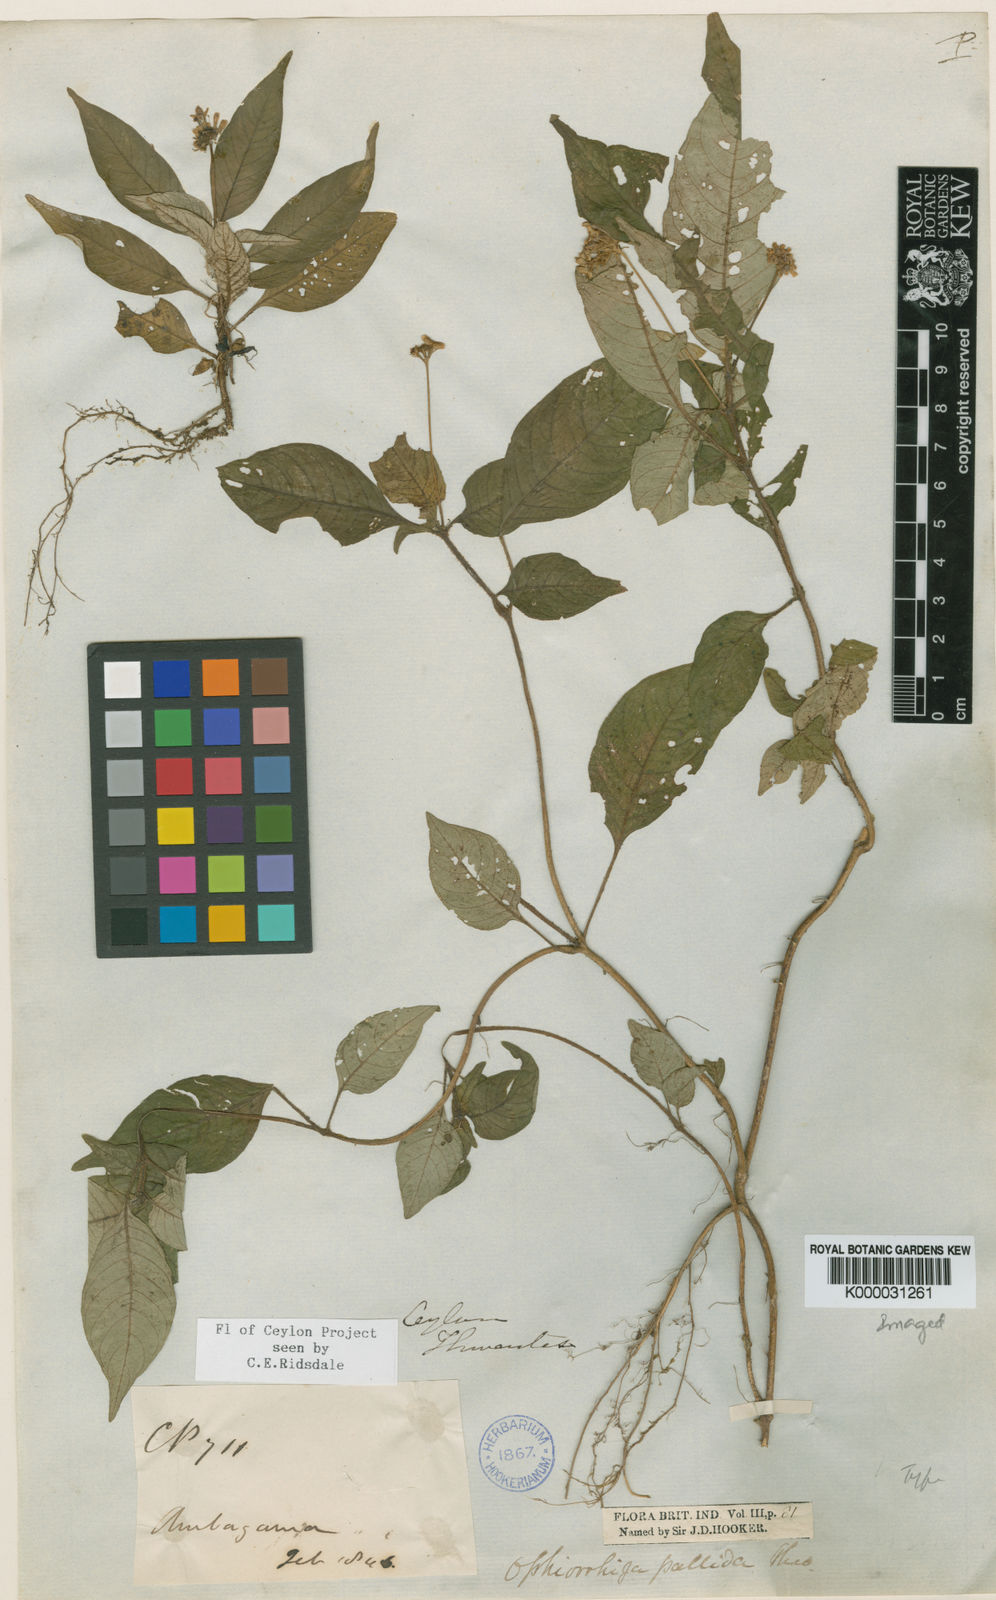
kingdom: Plantae
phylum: Tracheophyta
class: Magnoliopsida
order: Gentianales
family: Rubiaceae
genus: Ophiorrhiza
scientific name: Ophiorrhiza pallida
